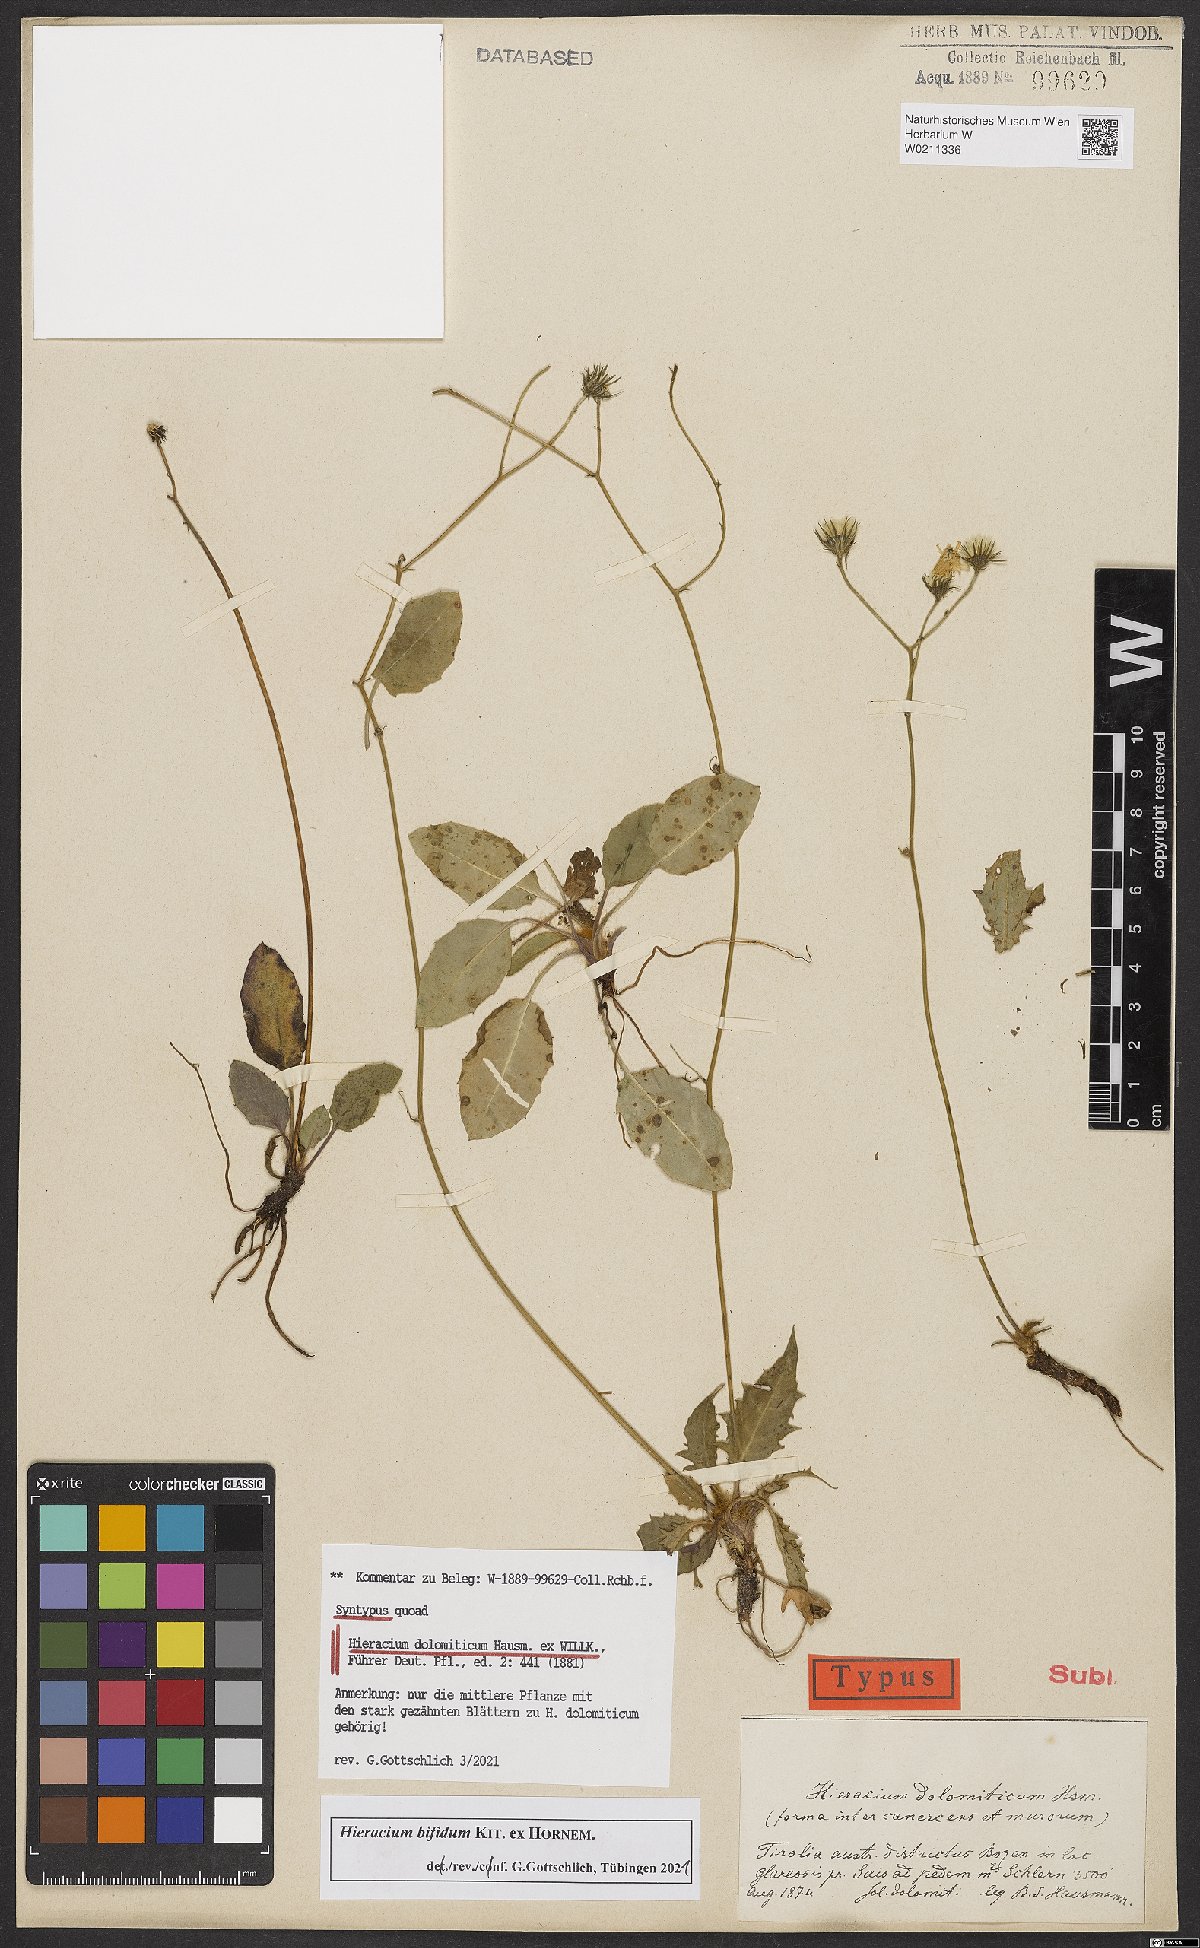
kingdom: Plantae
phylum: Tracheophyta
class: Magnoliopsida
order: Asterales
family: Asteraceae
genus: Hieracium
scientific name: Hieracium bifidum
